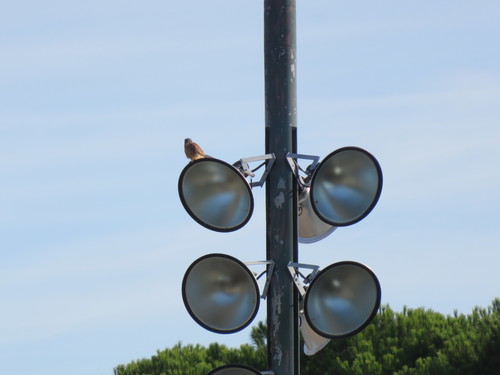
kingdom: Animalia
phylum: Chordata
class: Aves
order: Falconiformes
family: Falconidae
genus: Falco
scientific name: Falco tinnunculus
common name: Common kestrel
